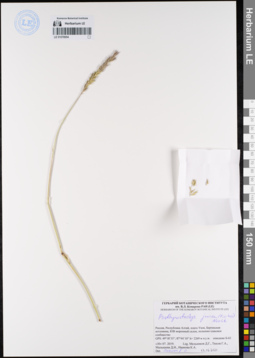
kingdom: Plantae
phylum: Tracheophyta
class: Liliopsida
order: Poales
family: Poaceae
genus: Psathyrostachys
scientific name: Psathyrostachys juncea
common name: Russian wildrye
